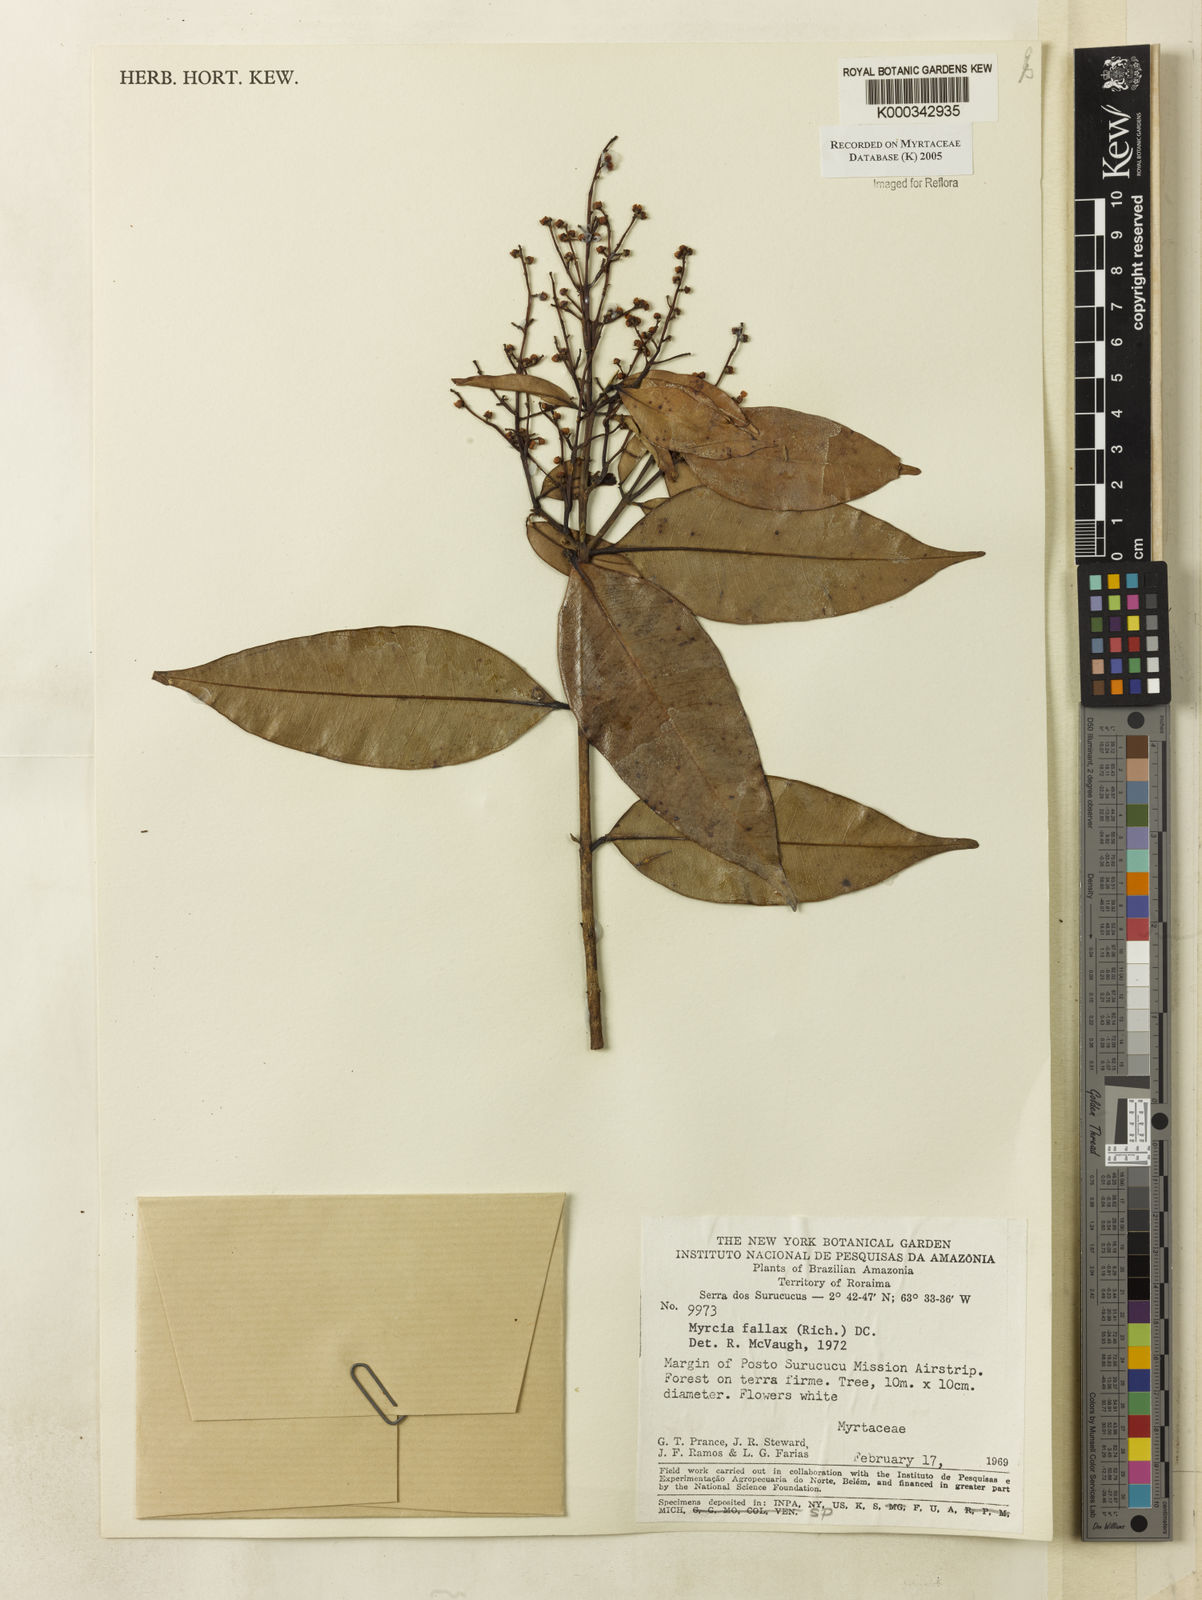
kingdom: Plantae
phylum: Tracheophyta
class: Magnoliopsida
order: Myrtales
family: Myrtaceae
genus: Myrcia
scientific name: Myrcia splendens
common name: Surinam cherry
